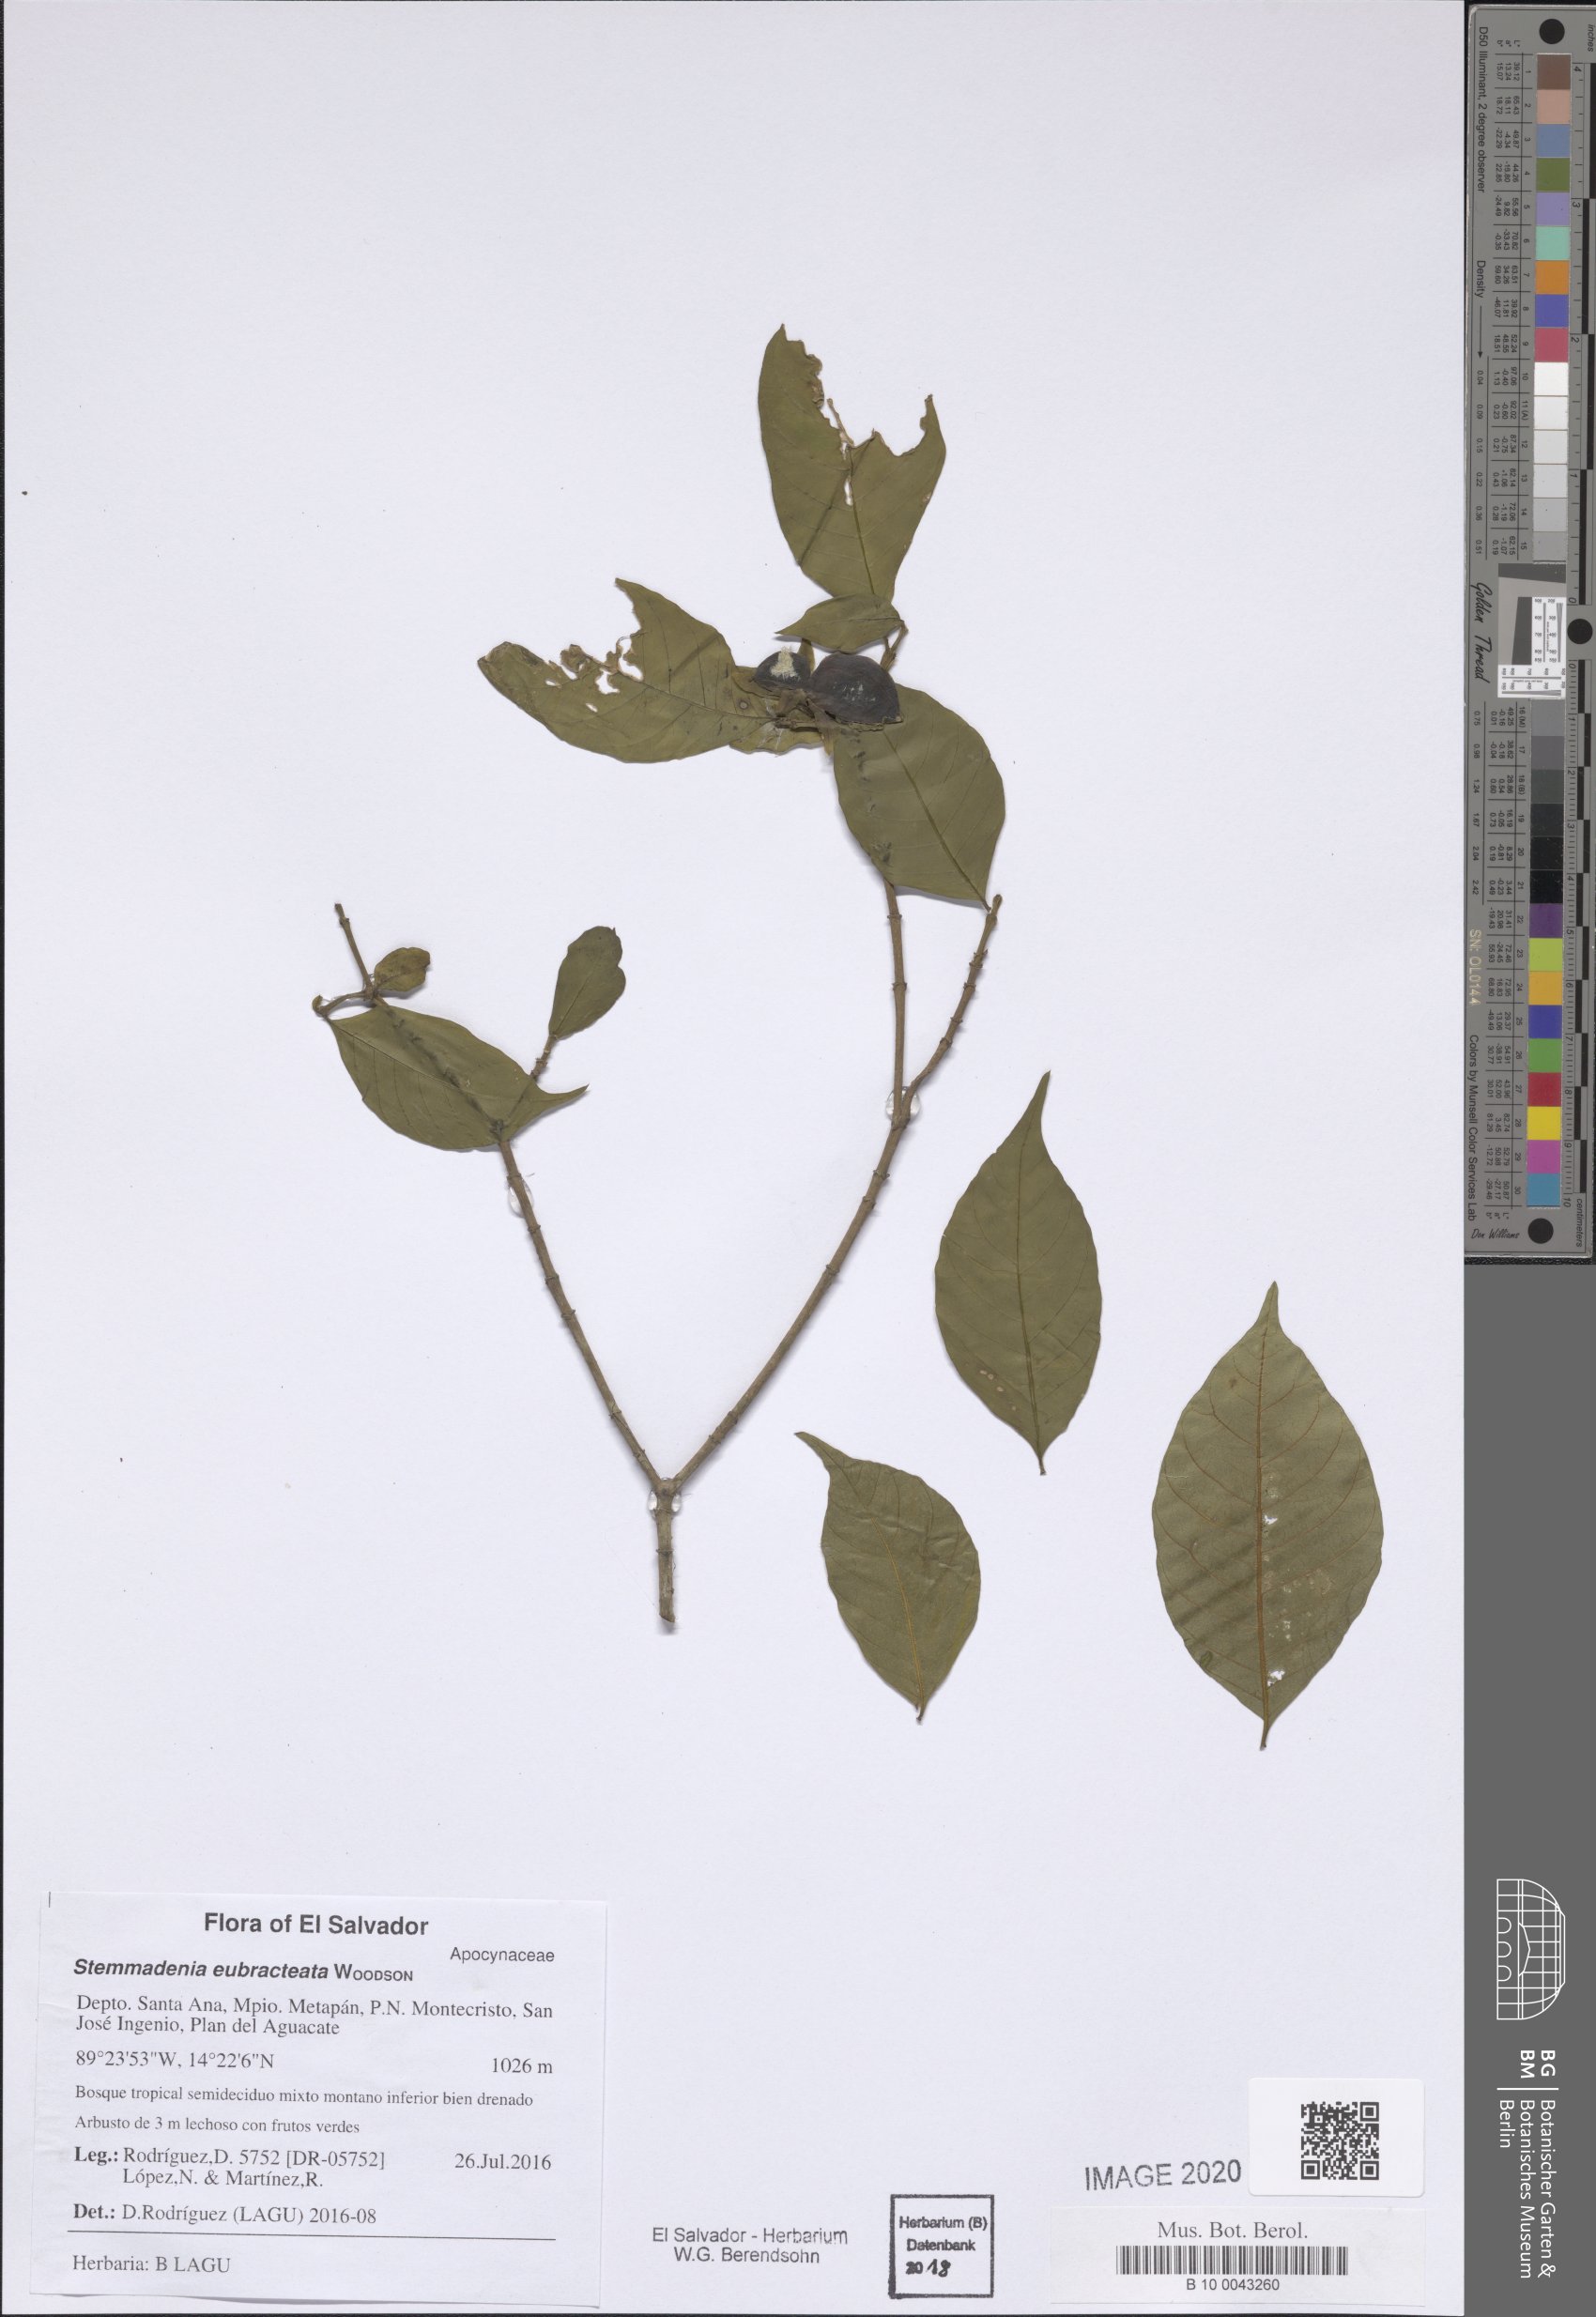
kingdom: Plantae
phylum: Tracheophyta
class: Magnoliopsida
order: Gentianales
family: Apocynaceae
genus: Tabernaemontana
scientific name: Tabernaemontana eubracteata
